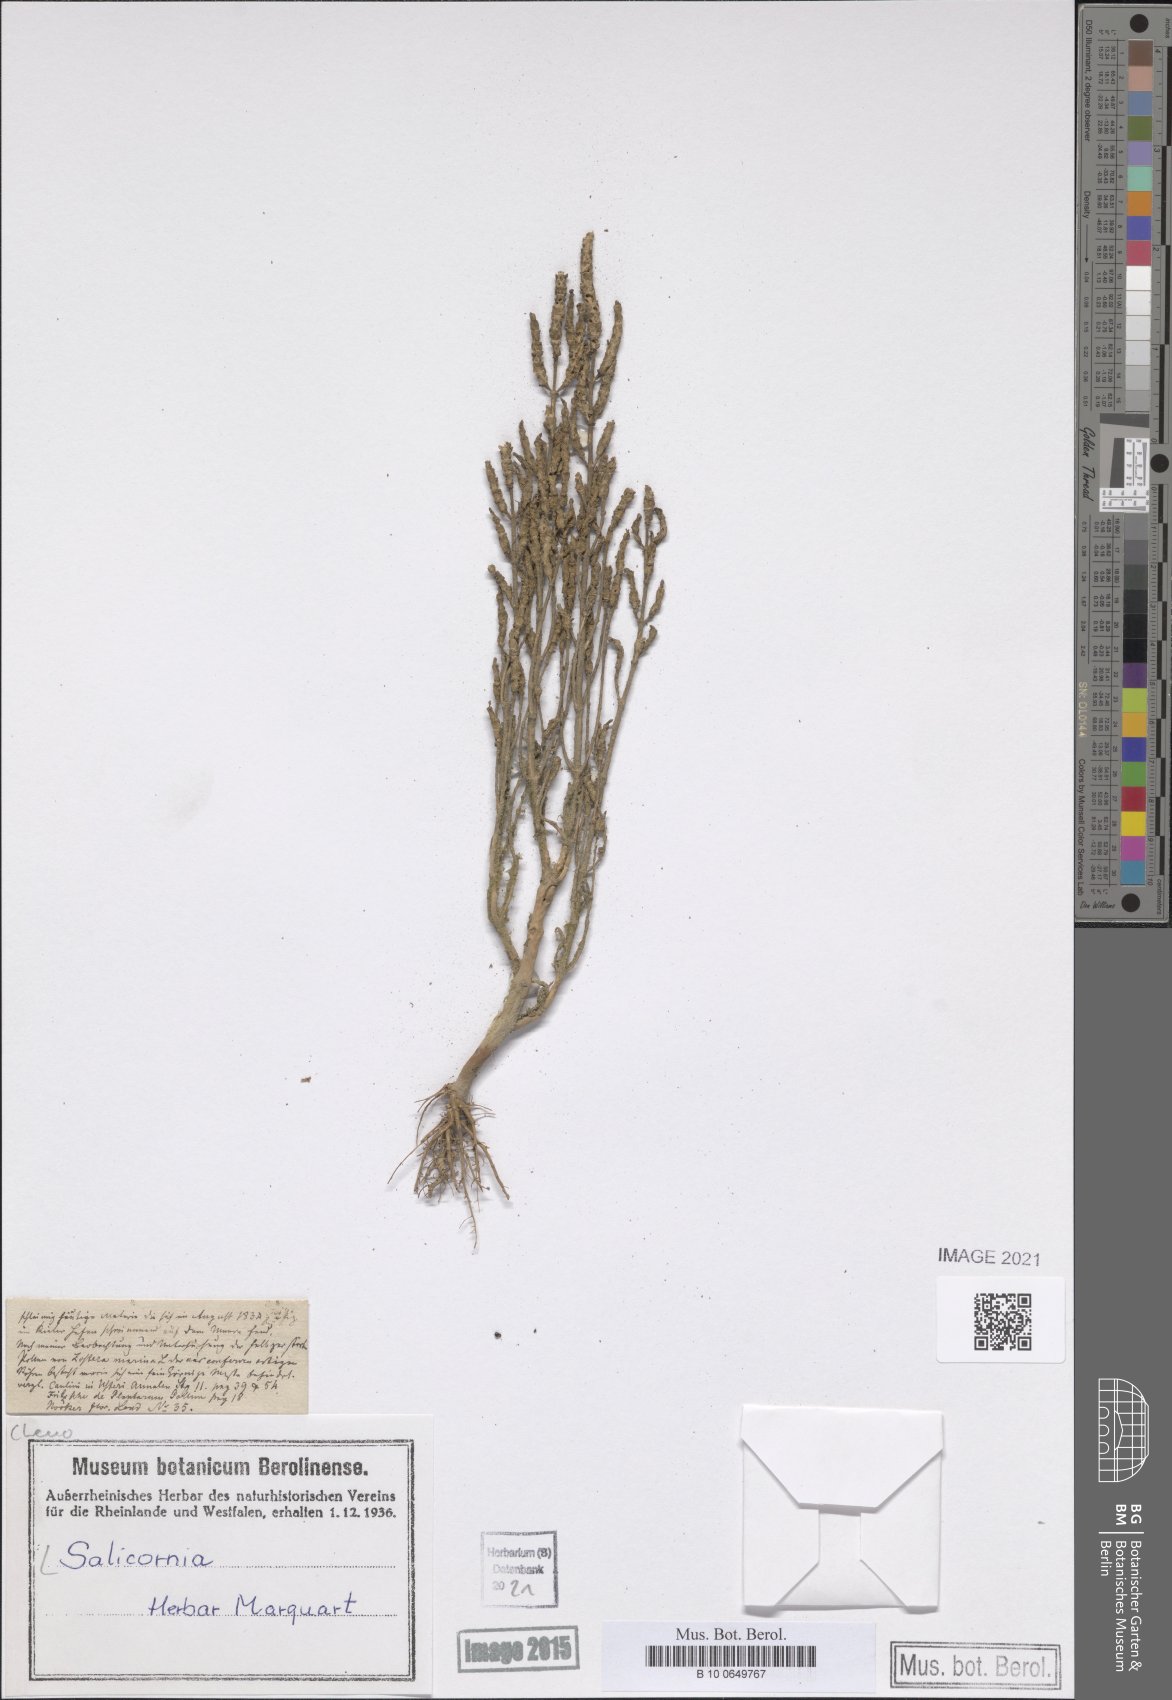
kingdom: Plantae
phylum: Tracheophyta
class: Magnoliopsida
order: Caryophyllales
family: Amaranthaceae
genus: Salicornia
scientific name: Salicornia
